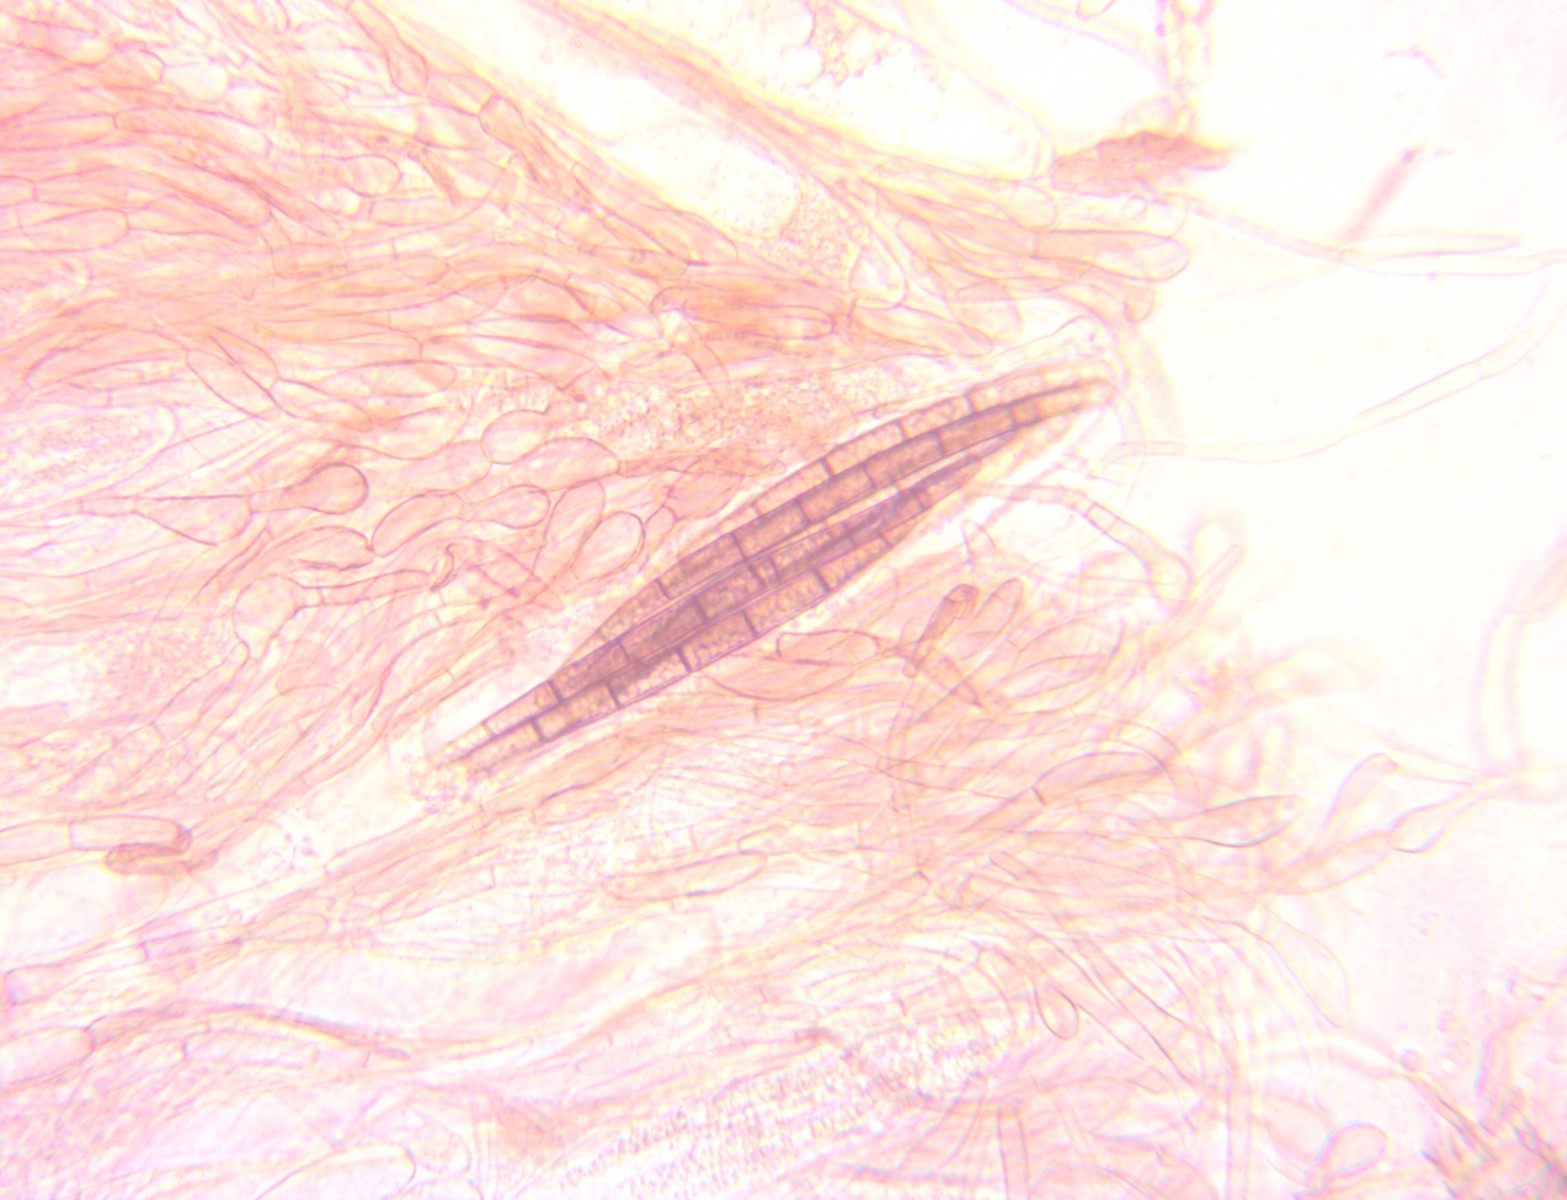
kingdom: Fungi
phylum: Ascomycota
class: Geoglossomycetes
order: Geoglossales
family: Geoglossaceae
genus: Geoglossum
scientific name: Geoglossum
